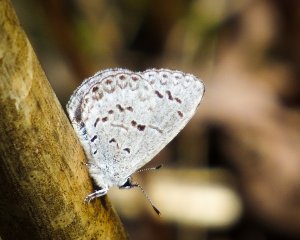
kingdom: Animalia
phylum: Arthropoda
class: Insecta
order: Lepidoptera
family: Lycaenidae
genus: Celastrina
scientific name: Celastrina lucia
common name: Northern Spring Azure
